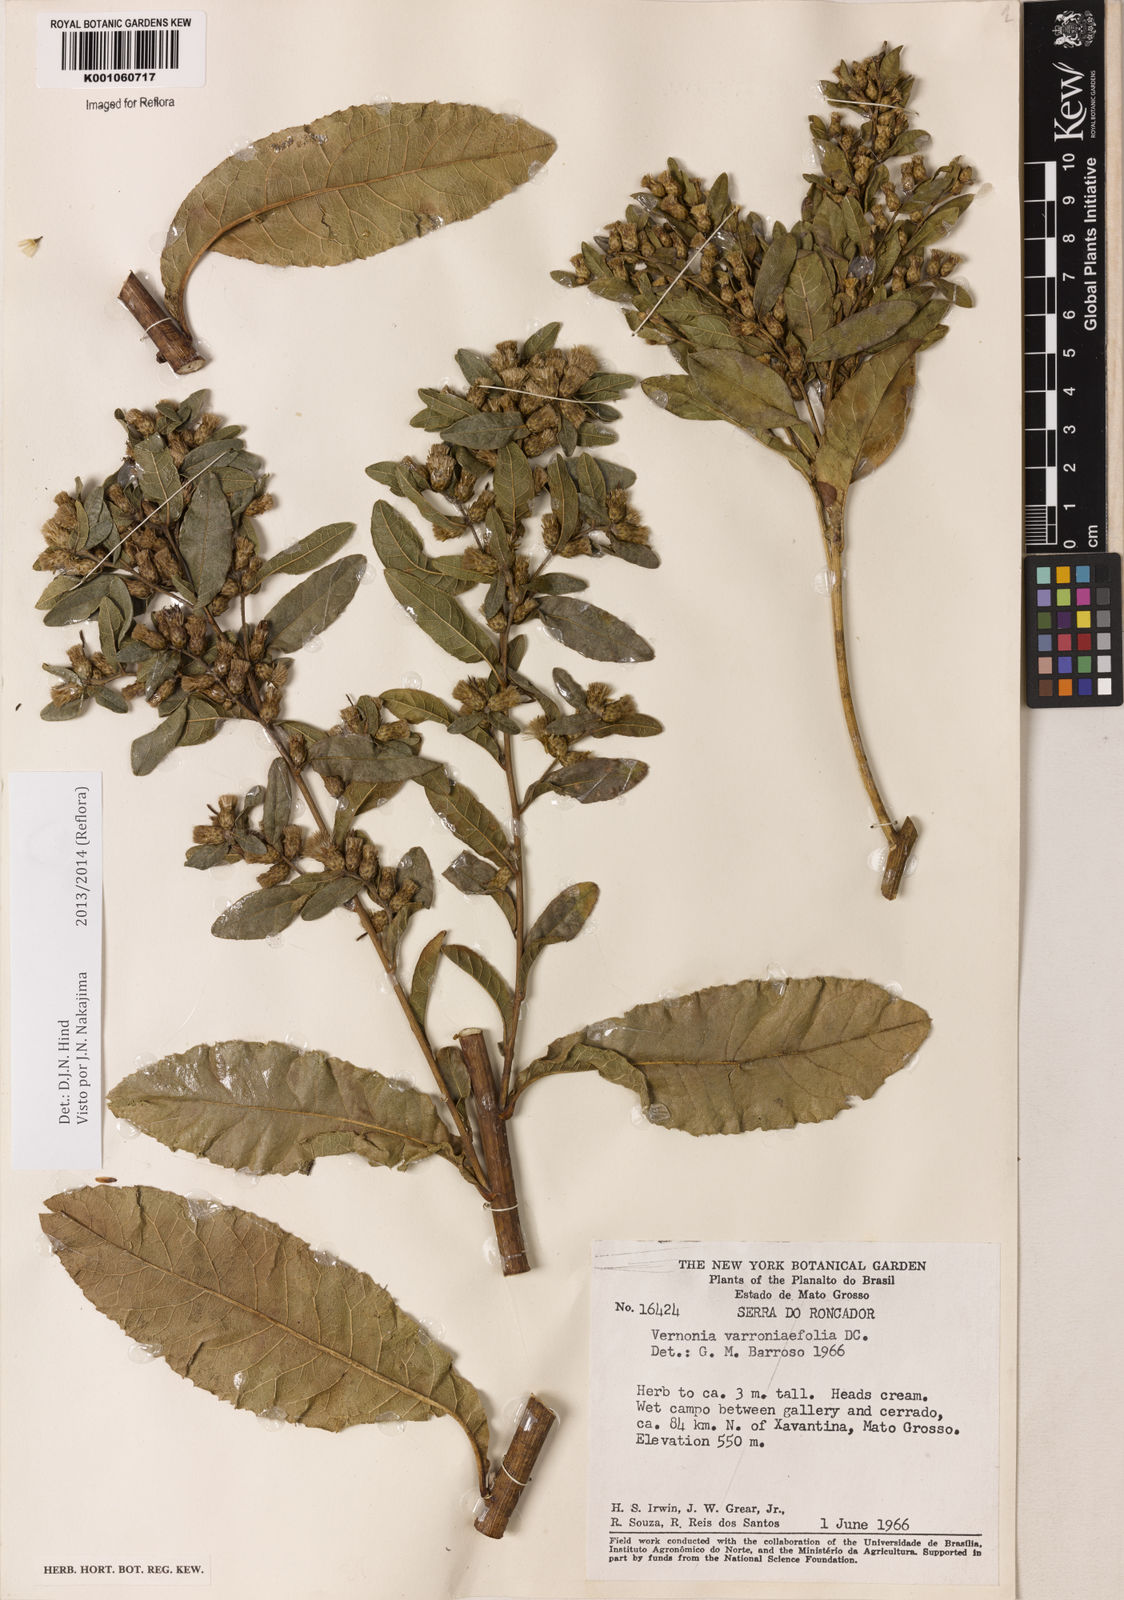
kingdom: Plantae
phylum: Tracheophyta
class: Magnoliopsida
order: Asterales
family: Asteraceae
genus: Lessingianthus
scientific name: Lessingianthus varroniifolius
